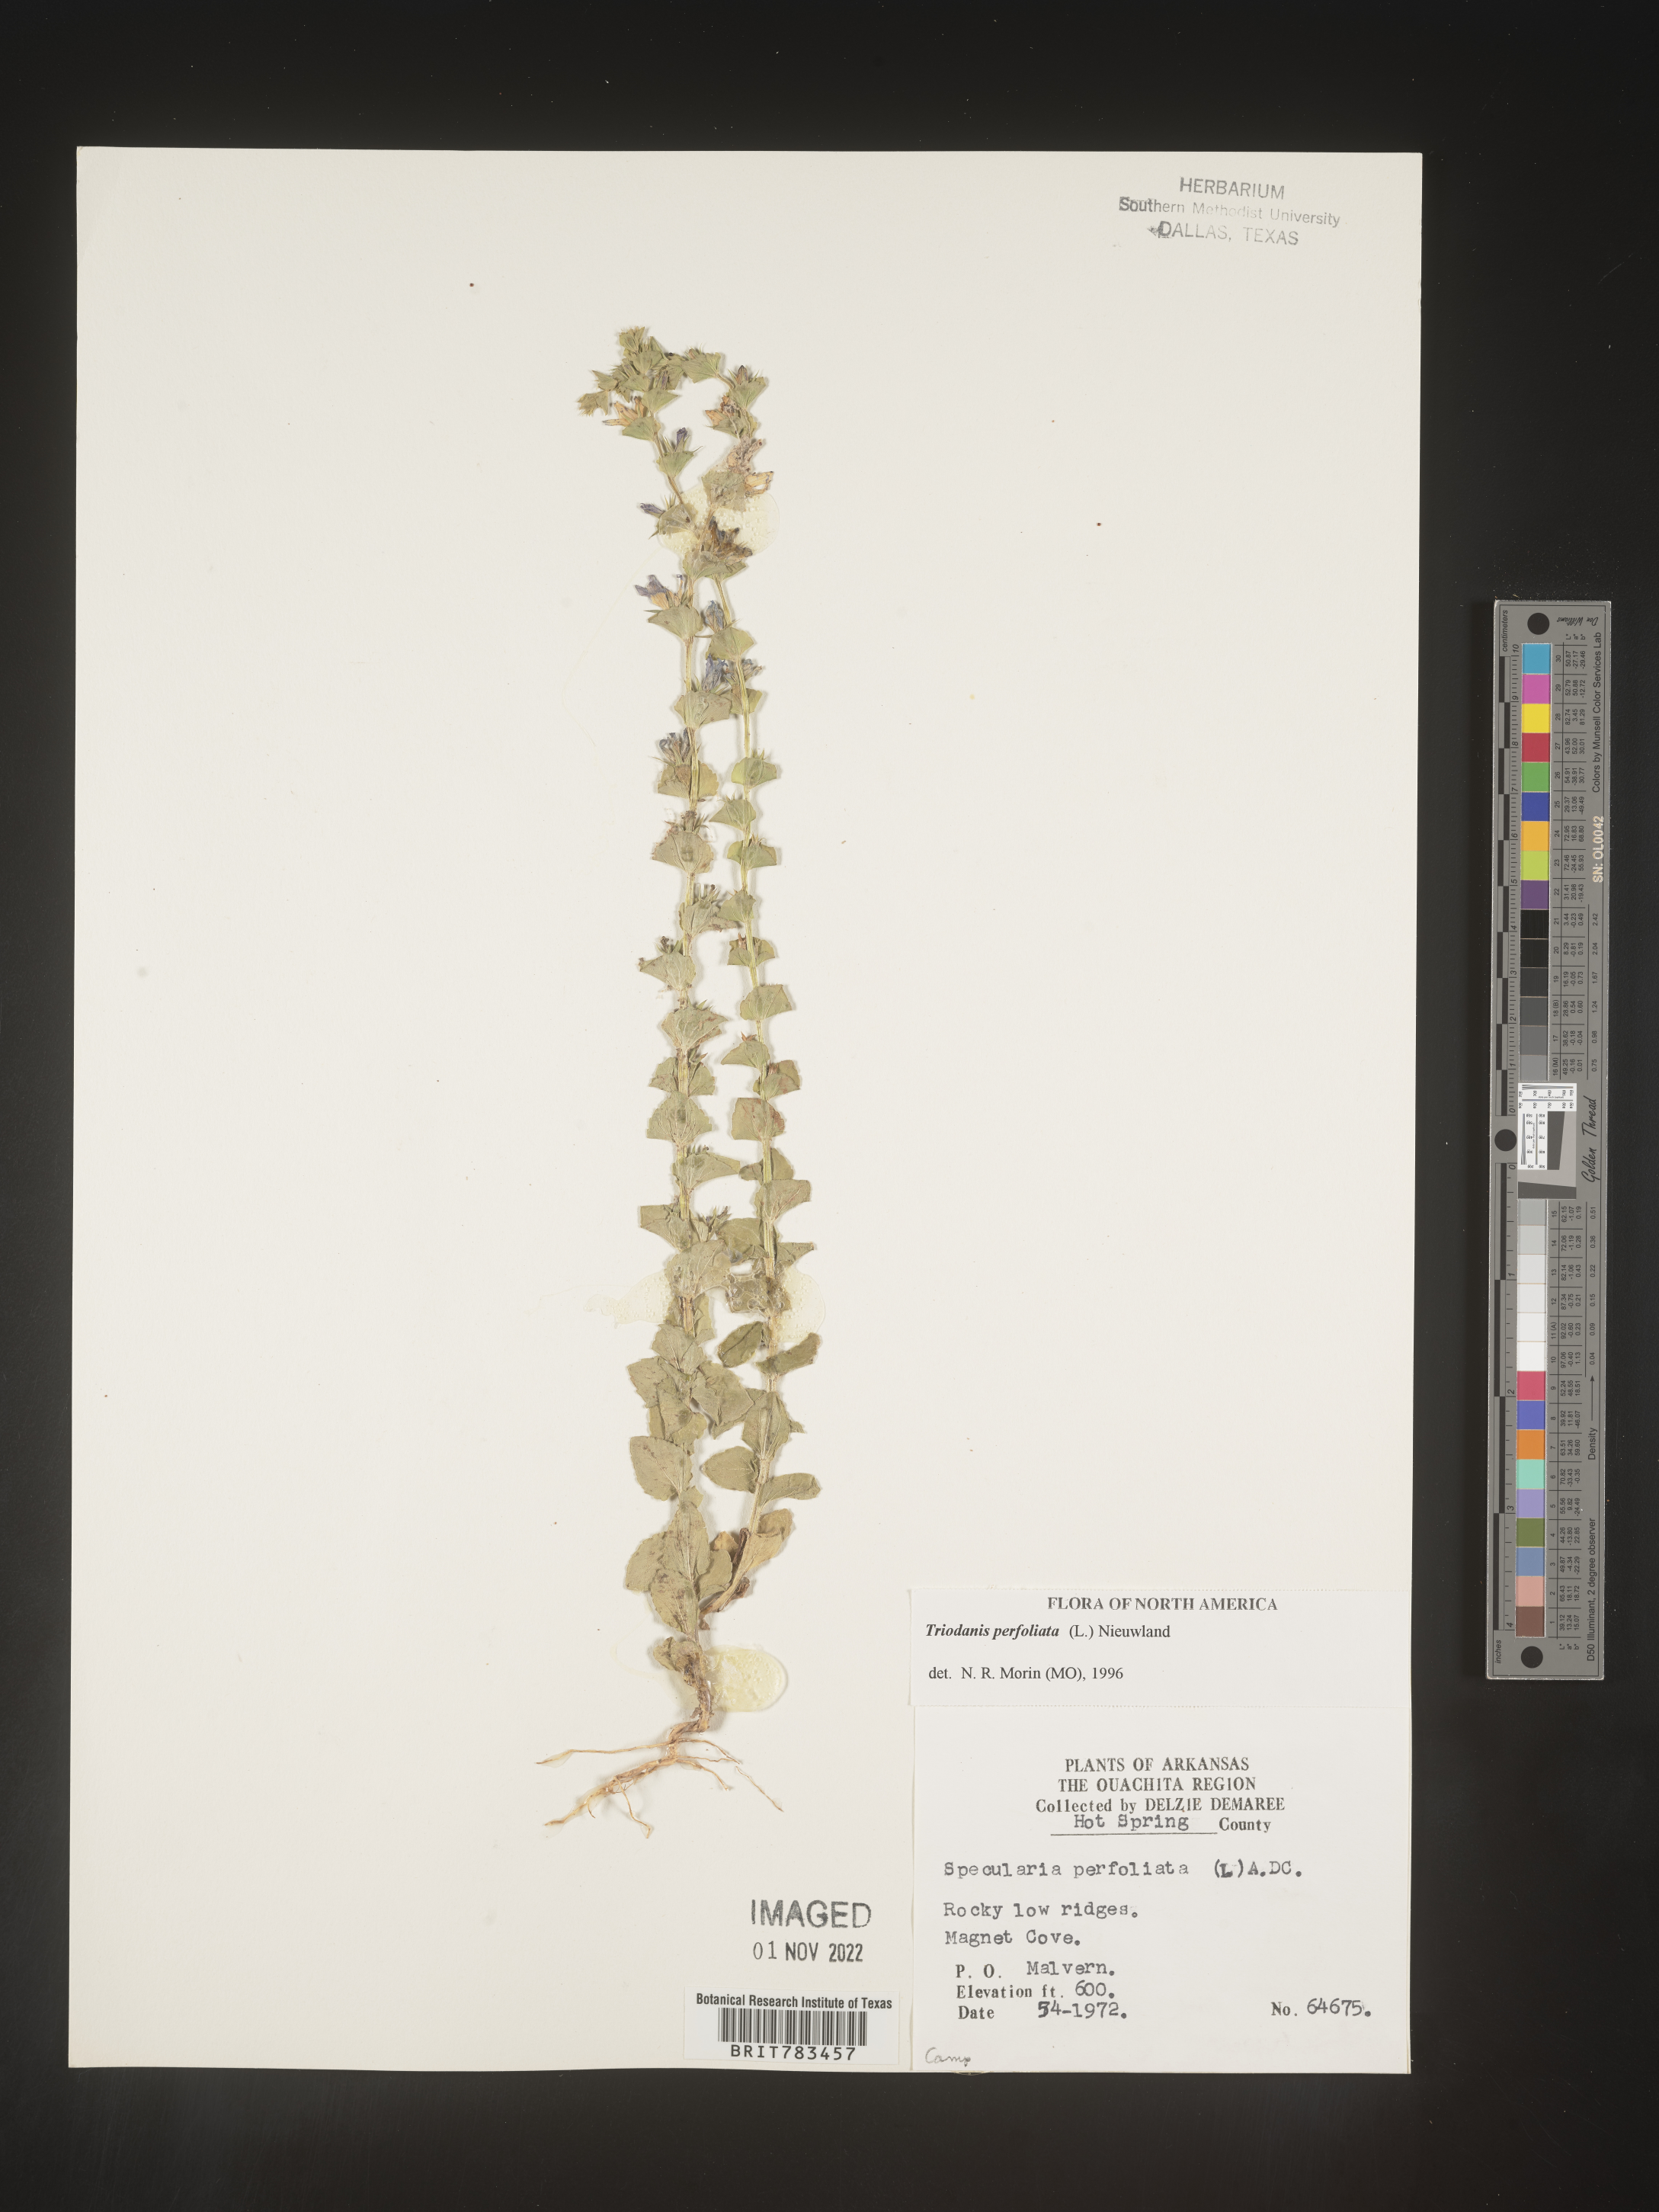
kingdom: Plantae
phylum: Tracheophyta
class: Magnoliopsida
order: Asterales
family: Campanulaceae
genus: Triodanis
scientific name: Triodanis perfoliata
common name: Clasping venus' looking-glass
